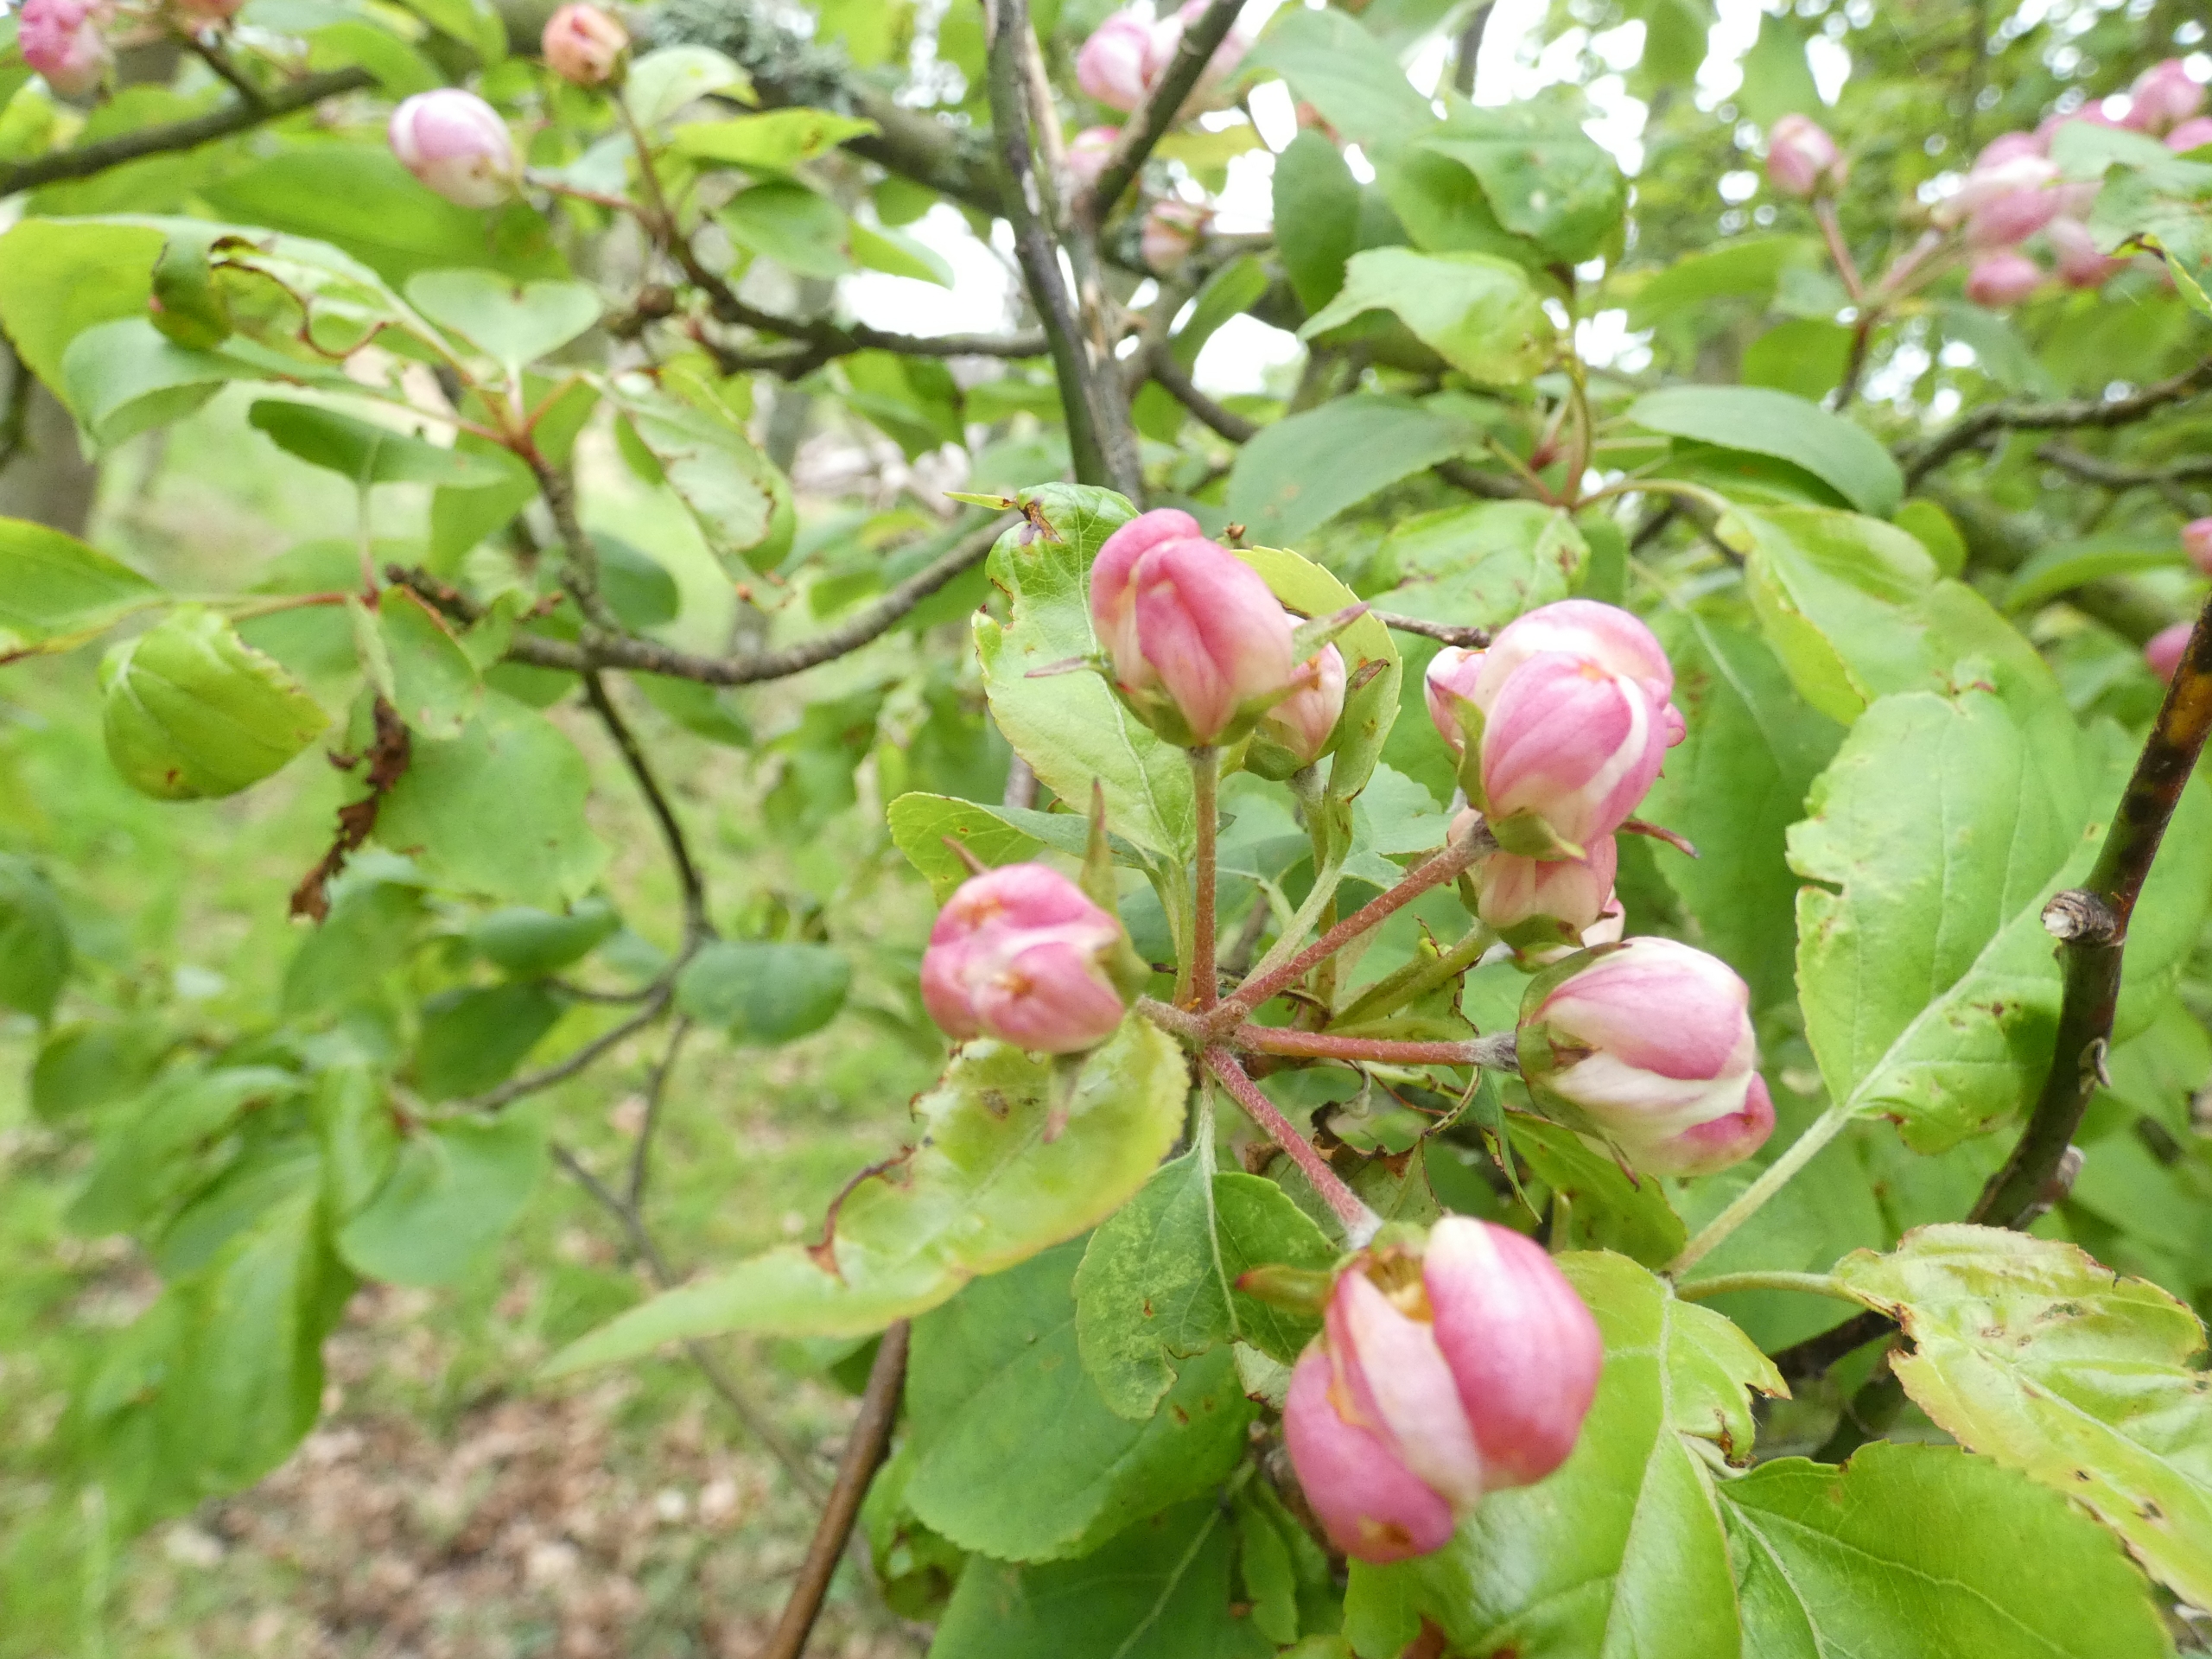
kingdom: Plantae
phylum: Tracheophyta
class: Magnoliopsida
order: Rosales
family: Rosaceae
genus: Malus
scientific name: Malus
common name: Sød-æble × skov-æble
